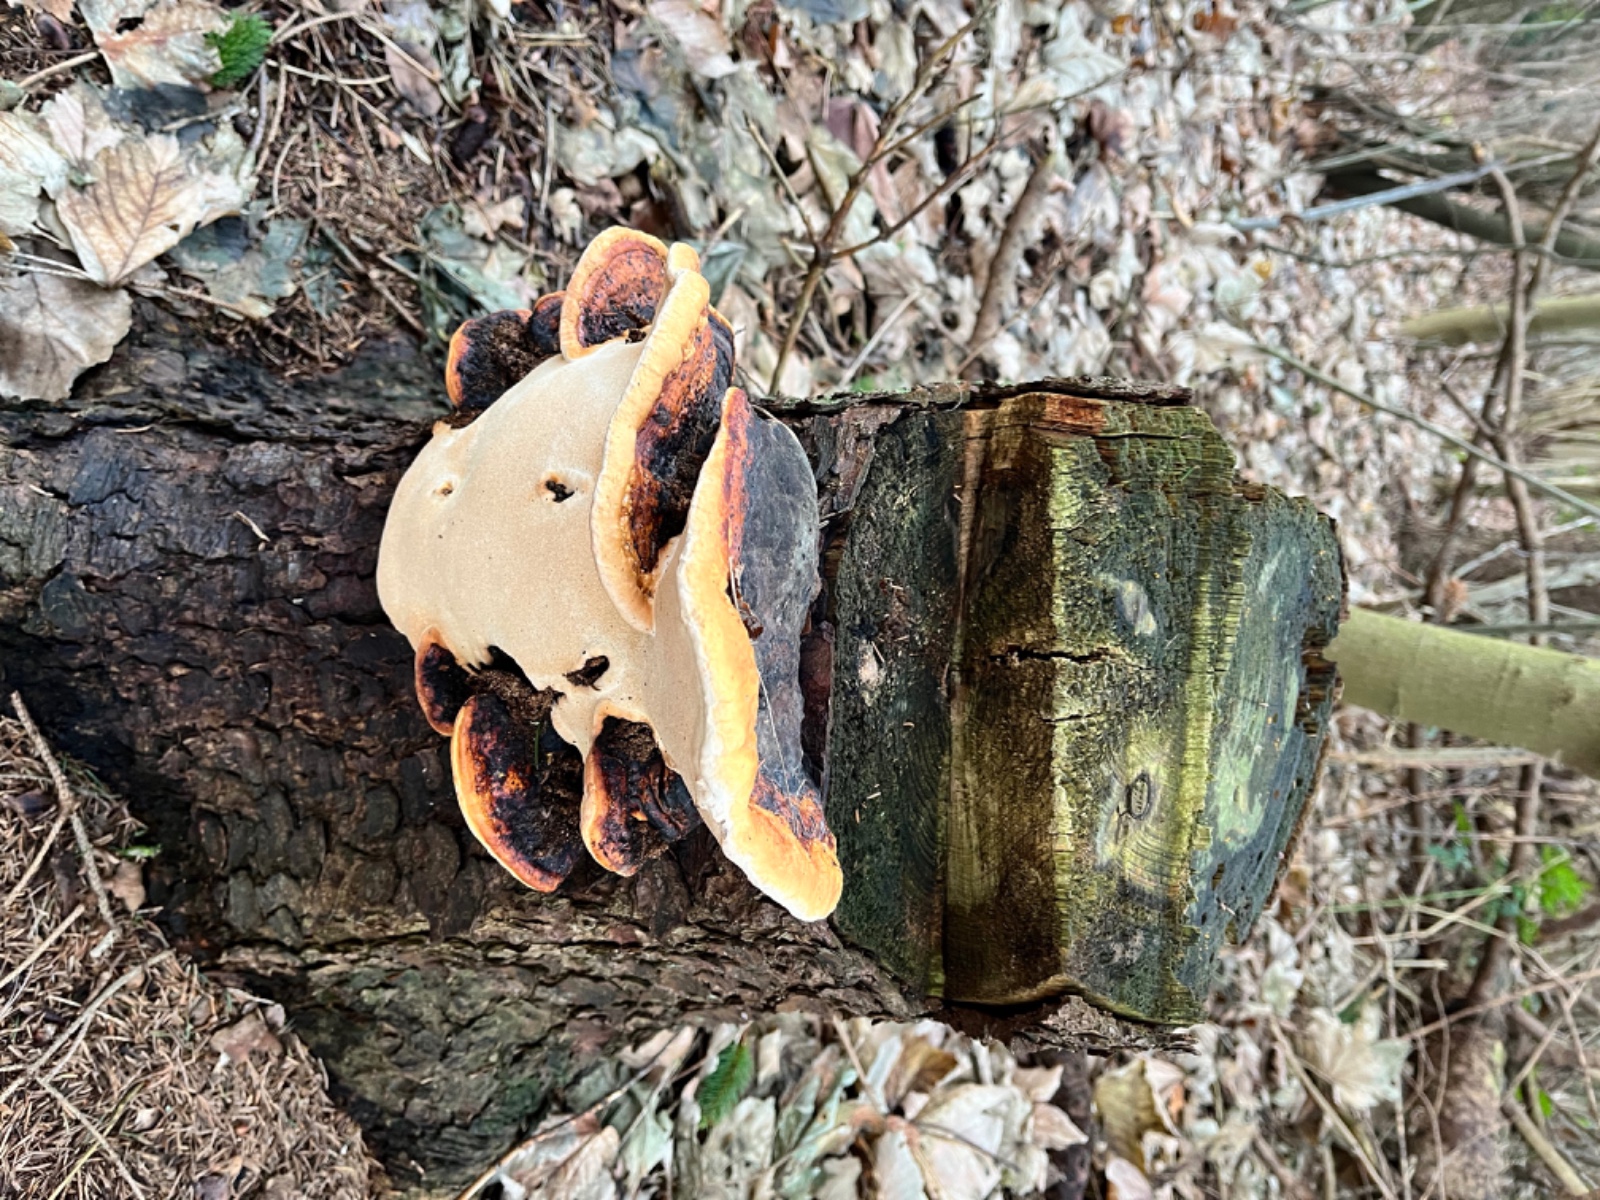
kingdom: Fungi
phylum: Basidiomycota
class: Agaricomycetes
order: Polyporales
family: Fomitopsidaceae
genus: Fomitopsis
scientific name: Fomitopsis pinicola
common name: randbæltet hovporesvamp
